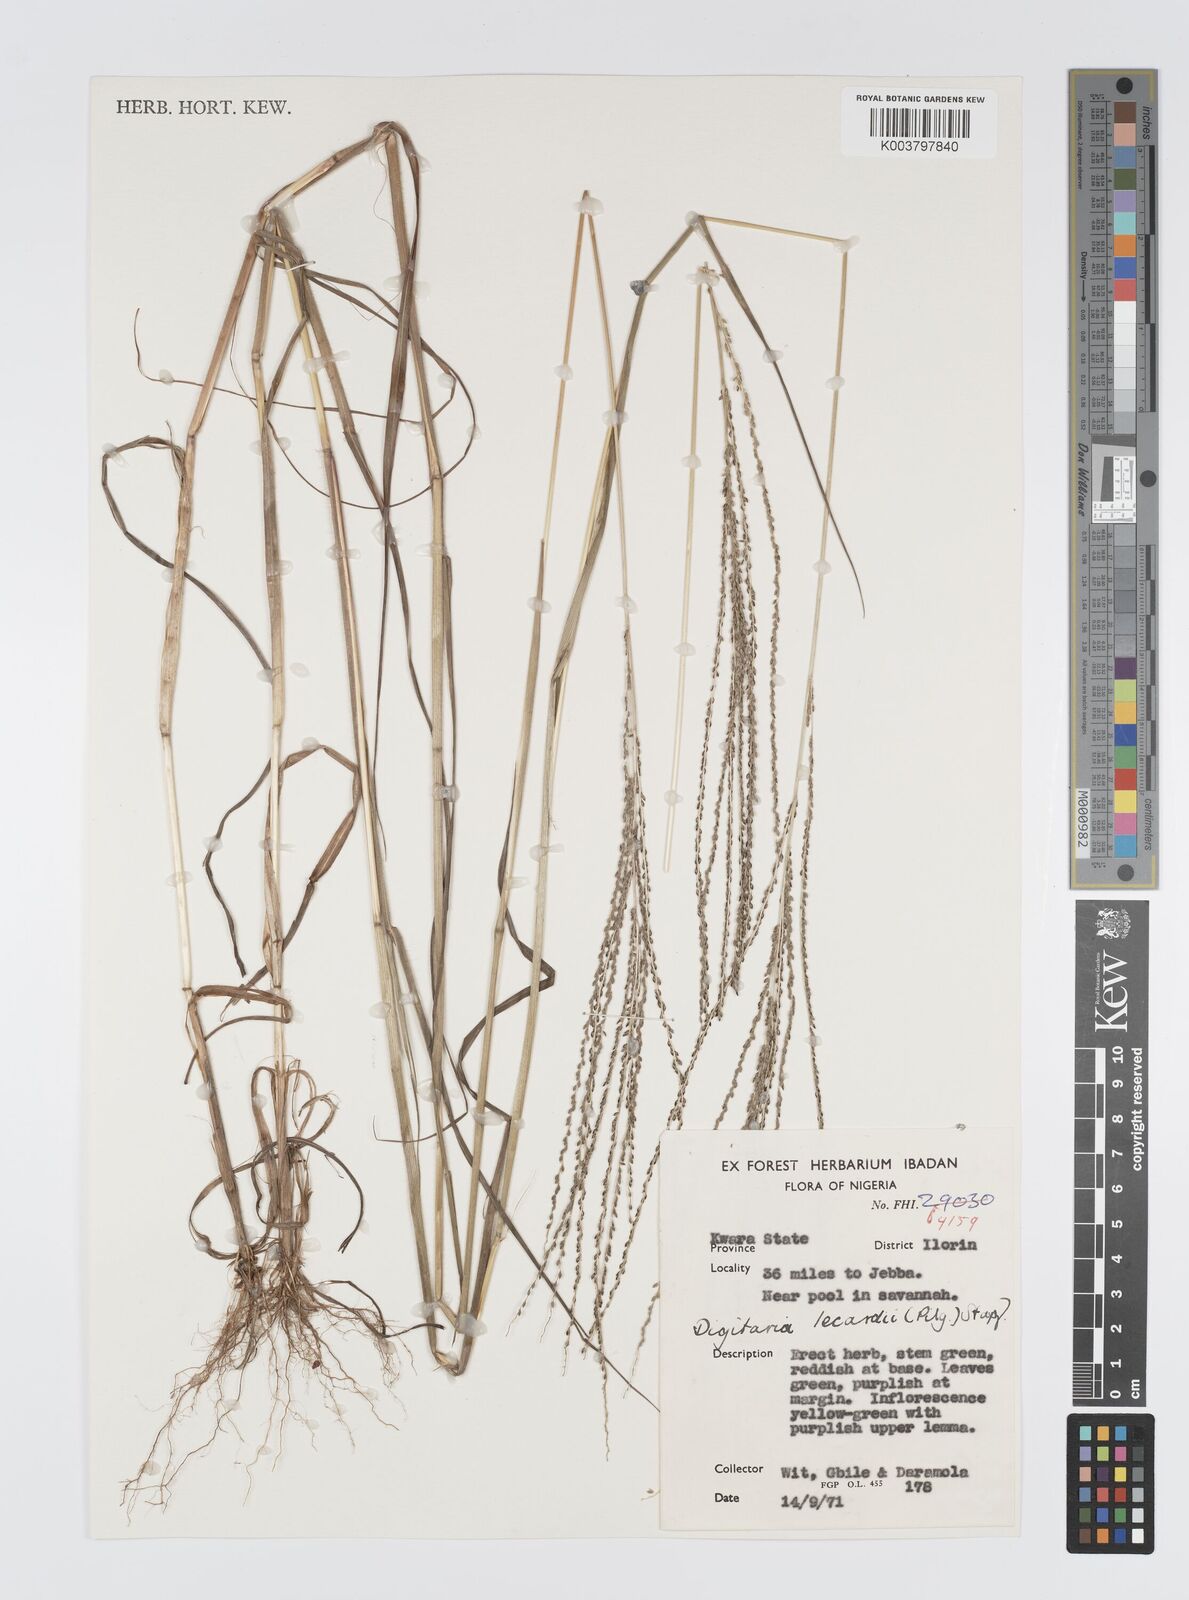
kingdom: Plantae
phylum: Tracheophyta
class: Liliopsida
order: Poales
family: Poaceae
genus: Digitaria
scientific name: Digitaria argillacea
